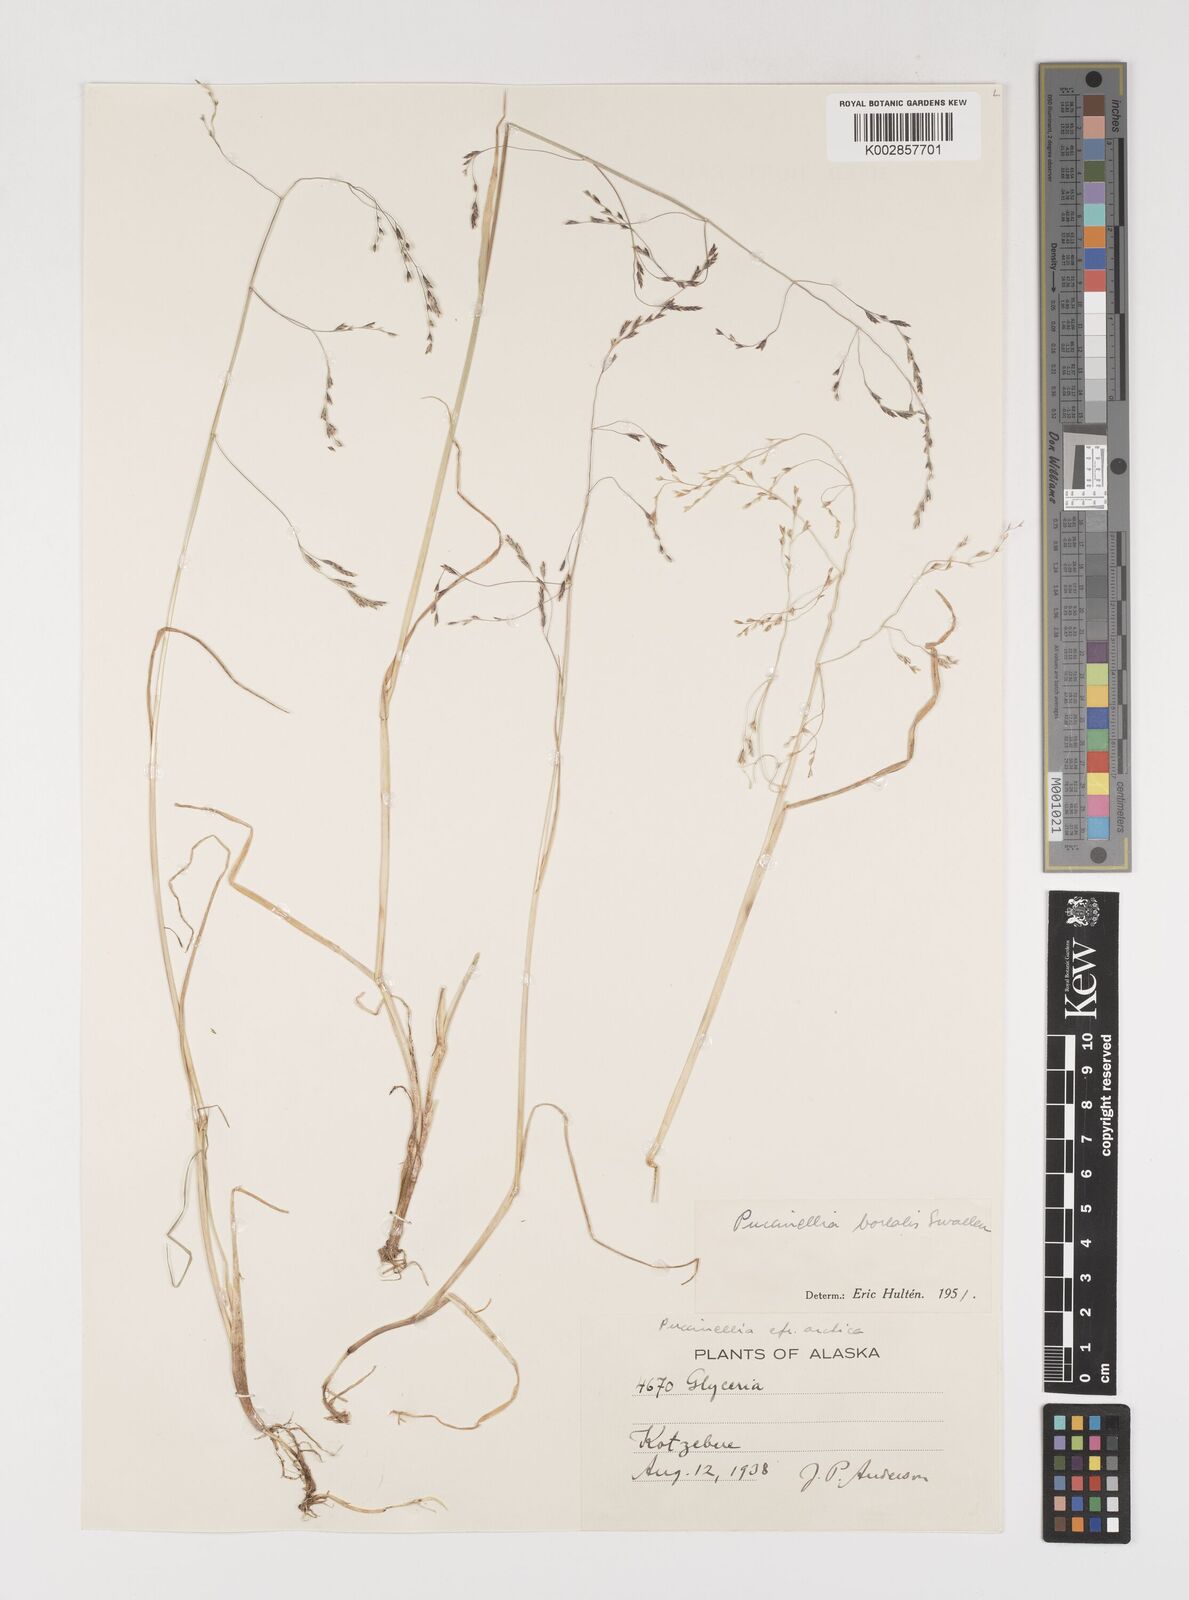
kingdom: Plantae
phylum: Tracheophyta
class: Liliopsida
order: Poales
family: Poaceae
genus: Puccinellia
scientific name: Puccinellia nuttalliana
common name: Nuttall's alkali grass
